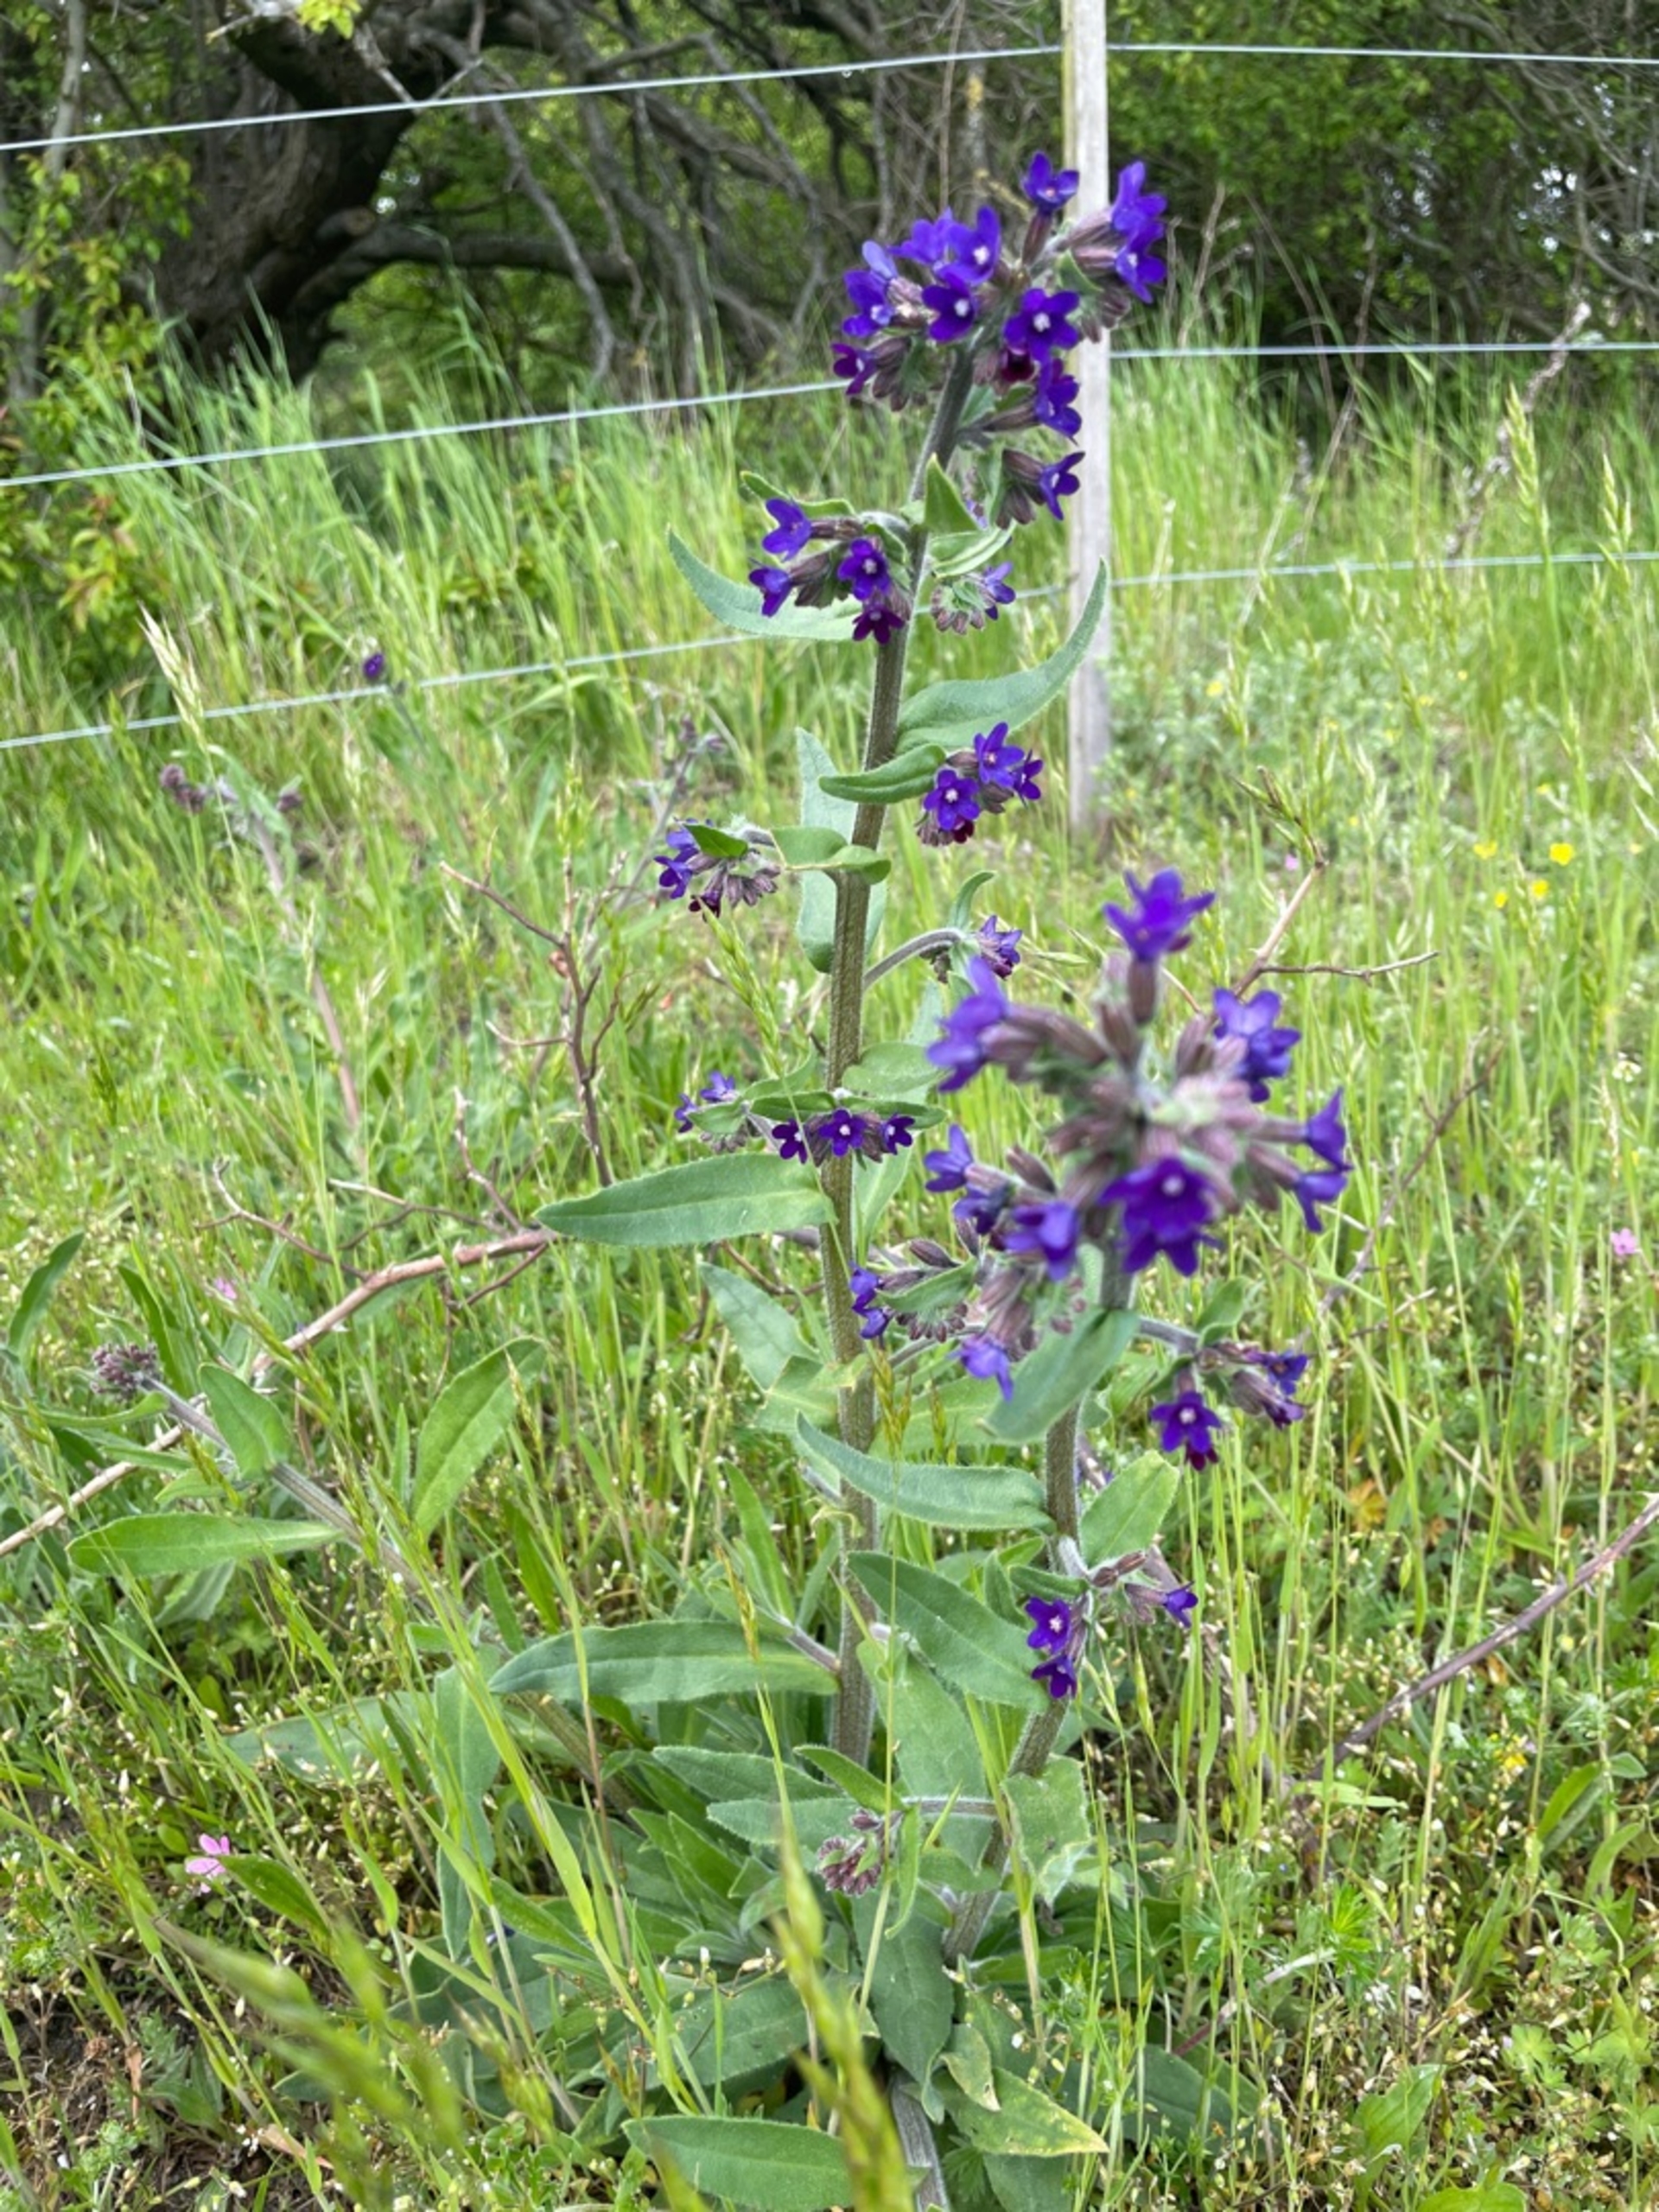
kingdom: Plantae
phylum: Tracheophyta
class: Magnoliopsida
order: Boraginales
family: Boraginaceae
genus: Anchusa
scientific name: Anchusa officinalis
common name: Læge-oksetunge
